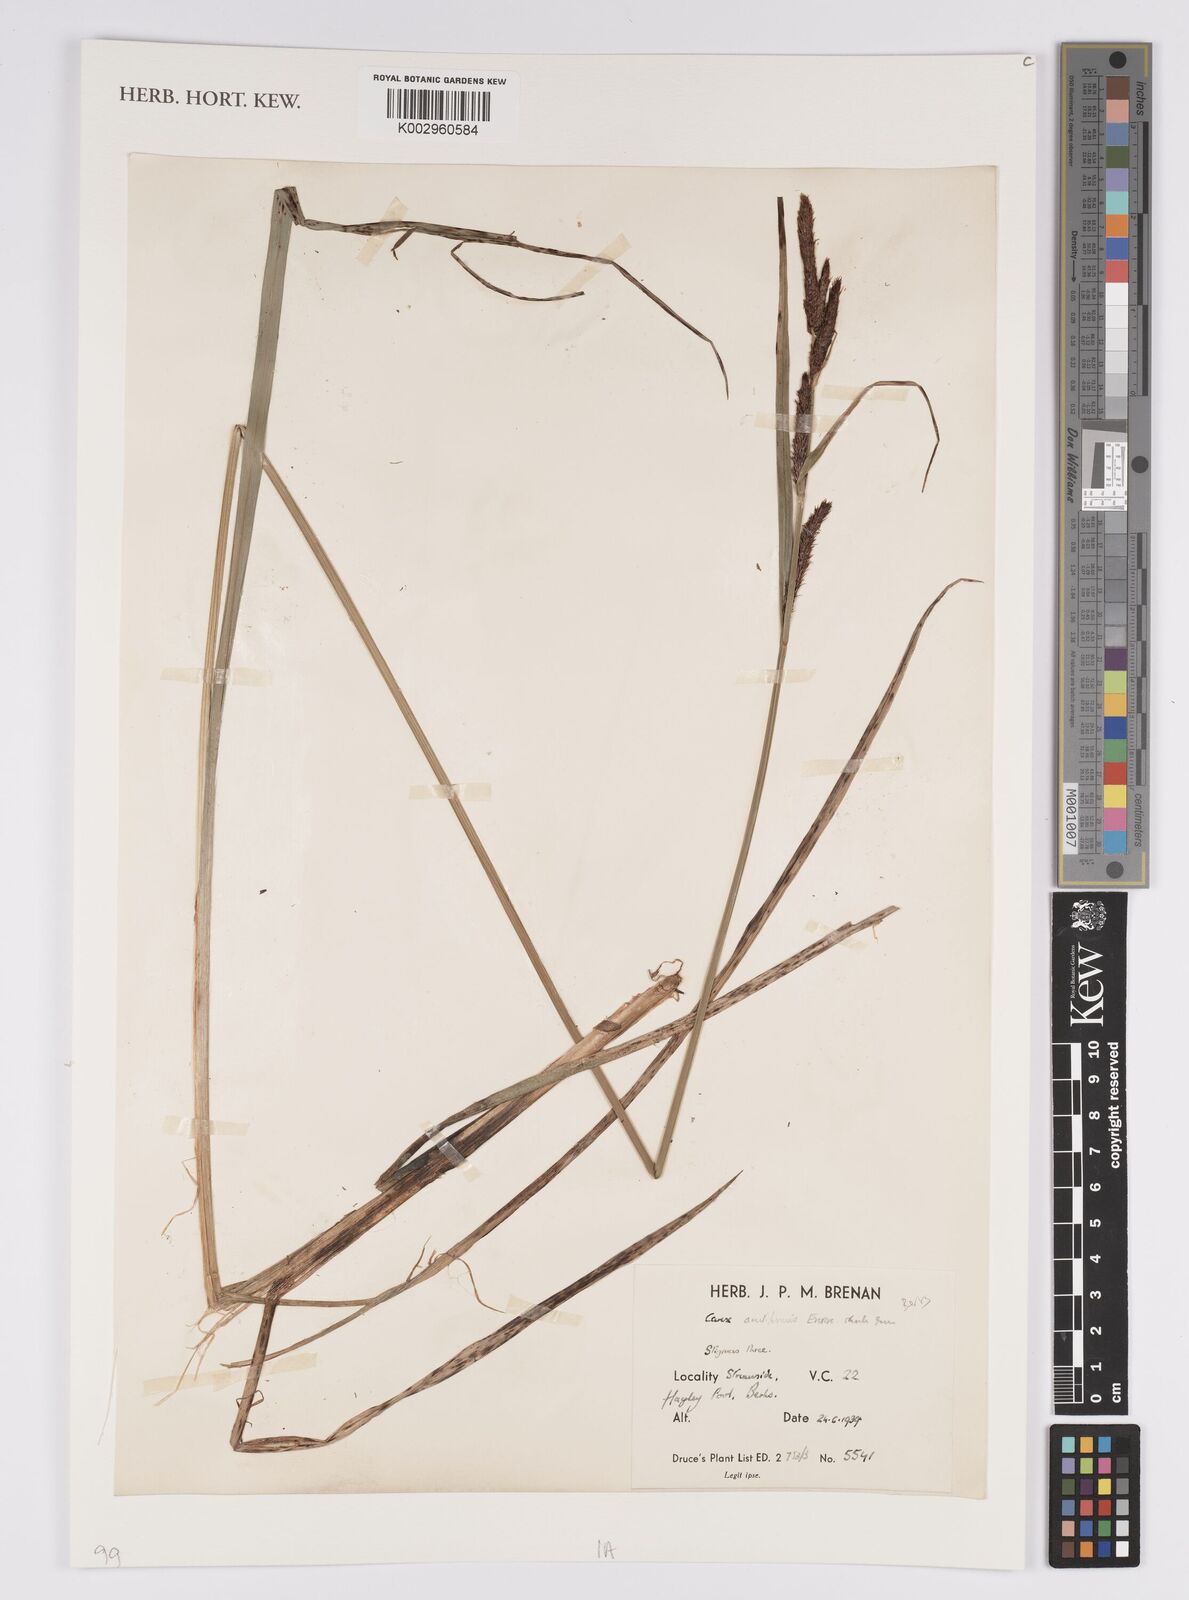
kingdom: Plantae
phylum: Tracheophyta
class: Liliopsida
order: Poales
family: Cyperaceae
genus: Carex
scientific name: Carex acutiformis
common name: Lesser pond-sedge
